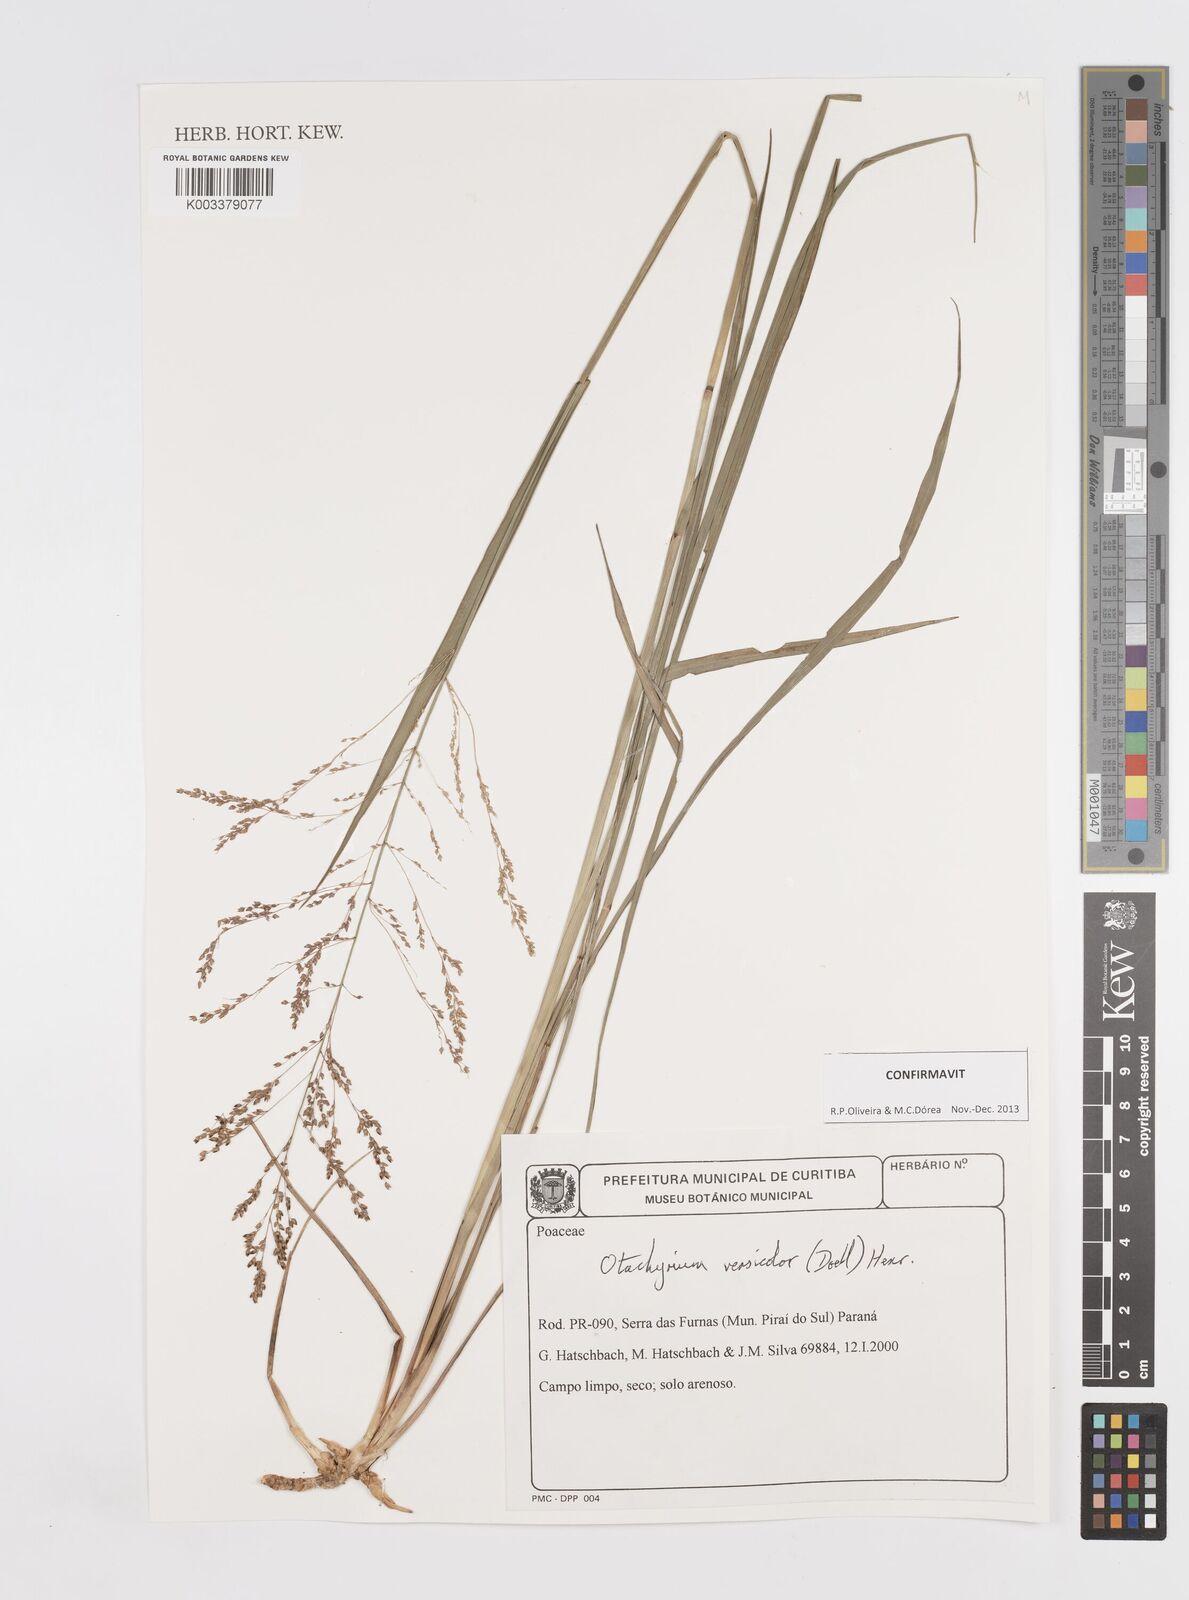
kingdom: Plantae
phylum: Tracheophyta
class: Liliopsida
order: Poales
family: Poaceae
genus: Otachyrium
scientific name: Otachyrium versicolor
